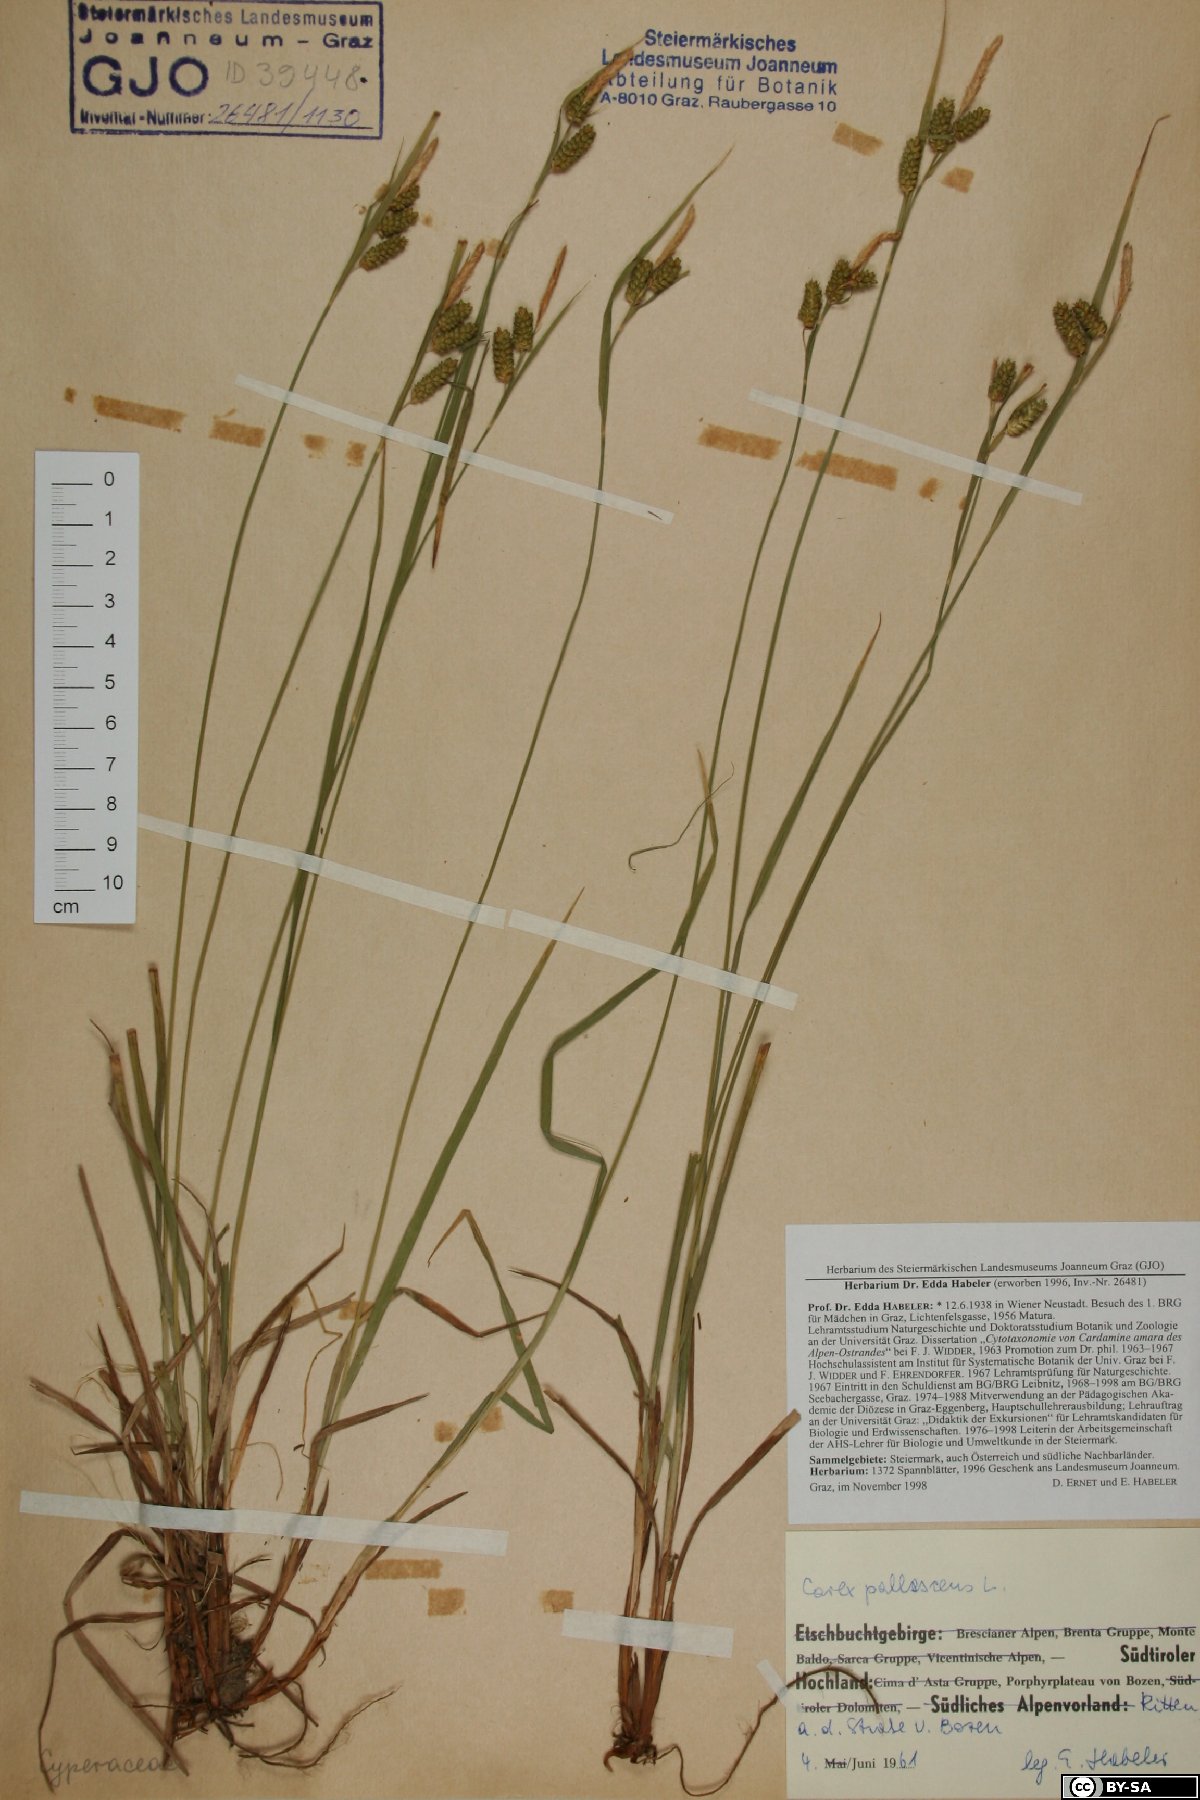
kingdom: Plantae
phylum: Tracheophyta
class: Liliopsida
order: Poales
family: Cyperaceae
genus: Carex
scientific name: Carex pallescens
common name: Pale sedge
